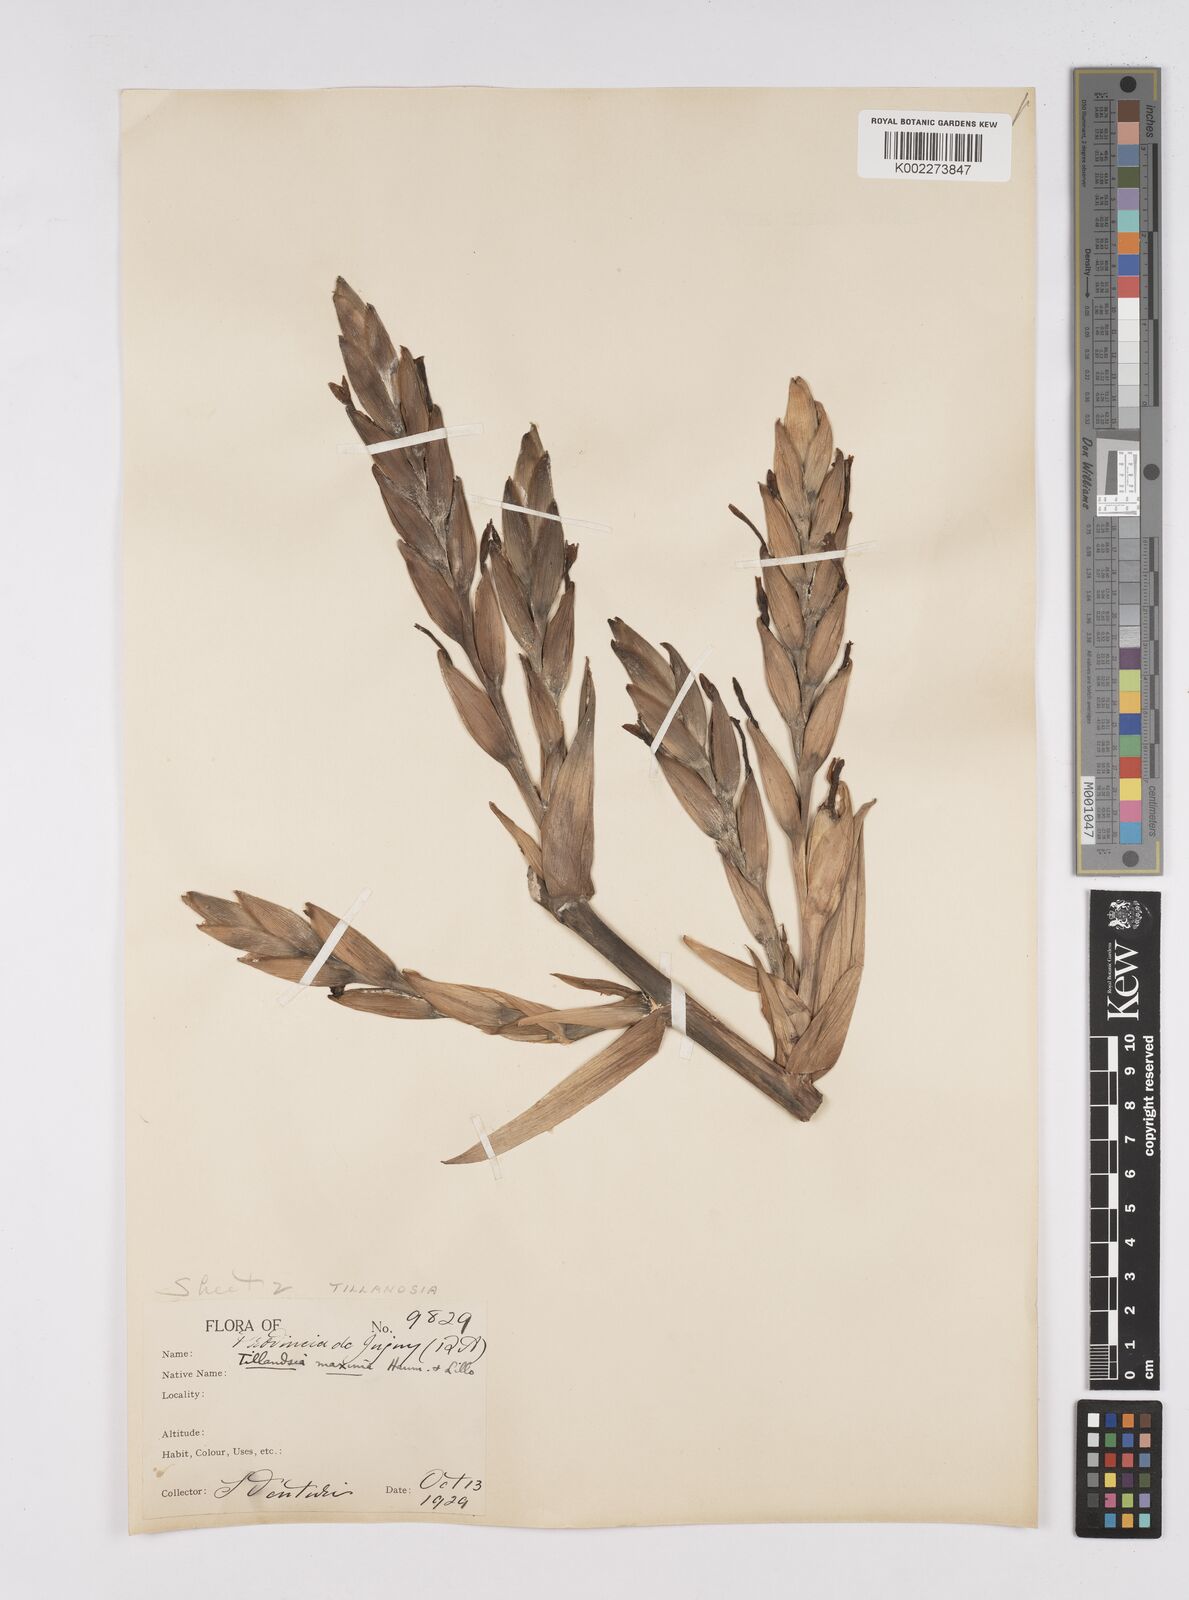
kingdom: Plantae
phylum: Tracheophyta
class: Liliopsida
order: Poales
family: Bromeliaceae
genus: Tillandsia
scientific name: Tillandsia australis
